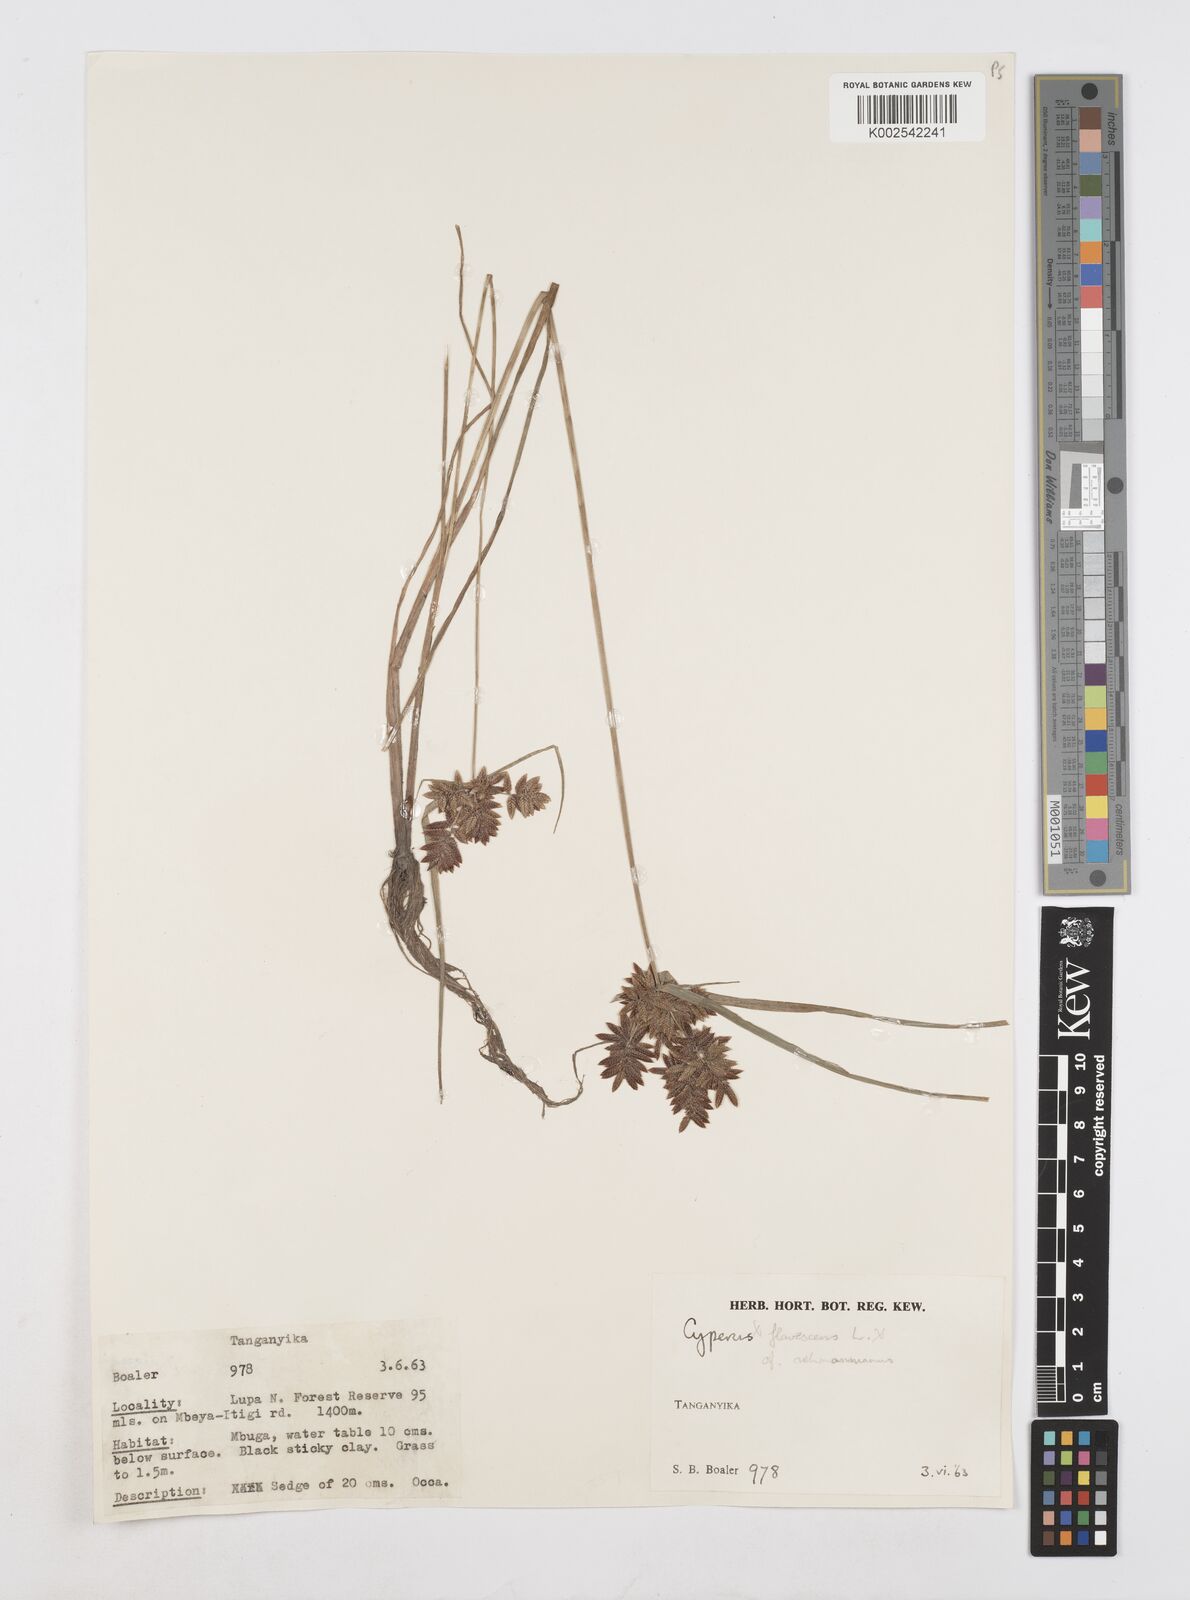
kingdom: Plantae
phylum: Tracheophyta
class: Liliopsida
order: Poales
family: Cyperaceae
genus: Cyperus
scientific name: Cyperus
